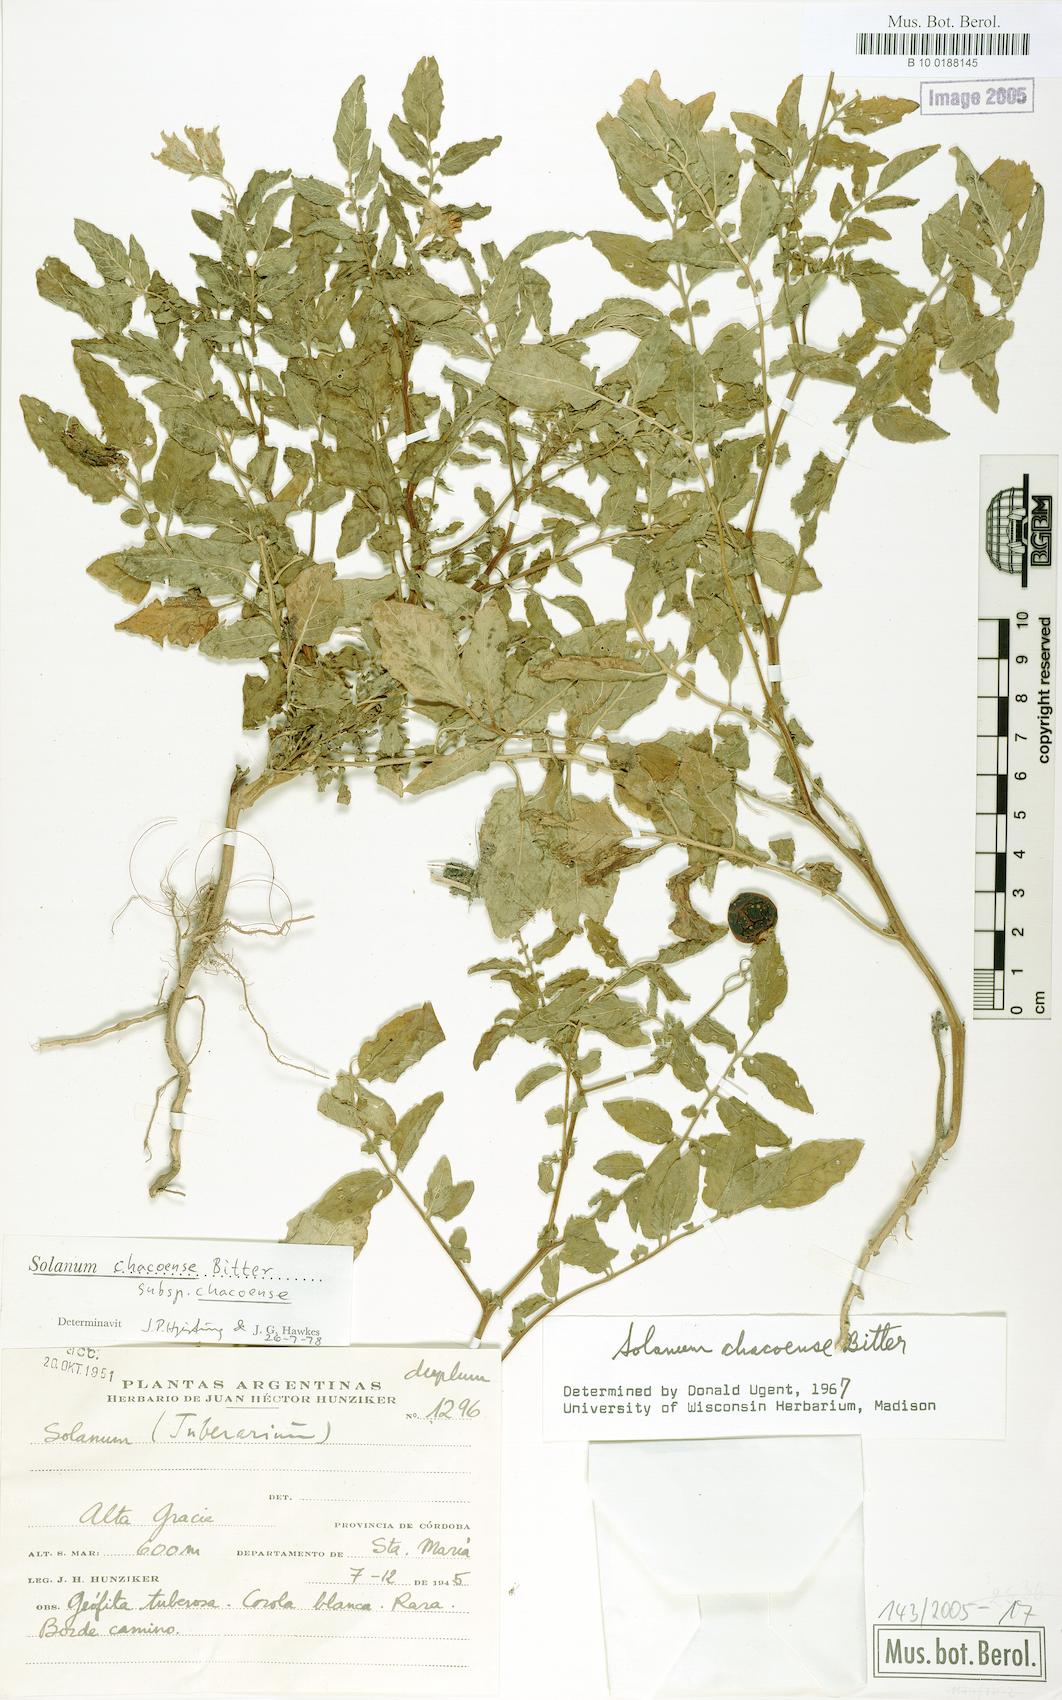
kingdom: Plantae
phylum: Tracheophyta
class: Magnoliopsida
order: Solanales
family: Solanaceae
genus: Solanum
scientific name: Solanum chacoense
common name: Chaco potato
